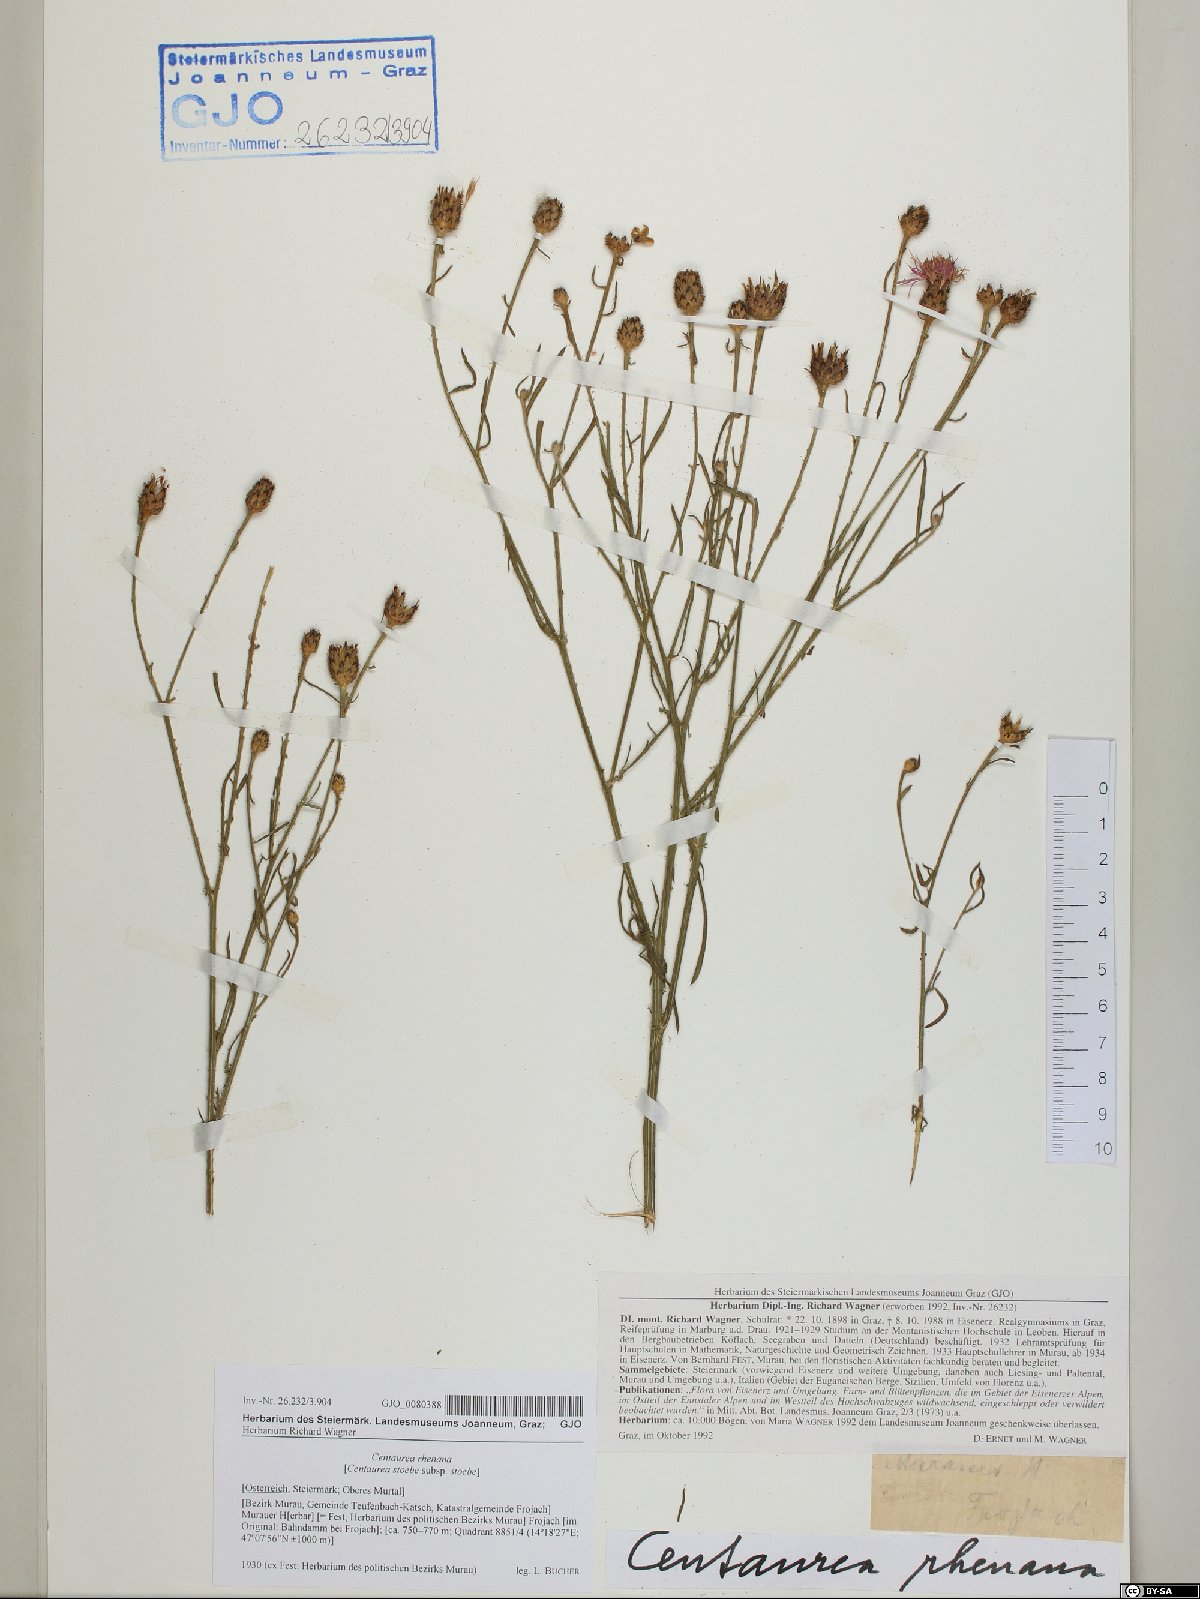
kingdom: Plantae
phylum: Tracheophyta
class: Magnoliopsida
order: Asterales
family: Asteraceae
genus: Centaurea
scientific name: Centaurea stoebe
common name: Spotted knapweed
